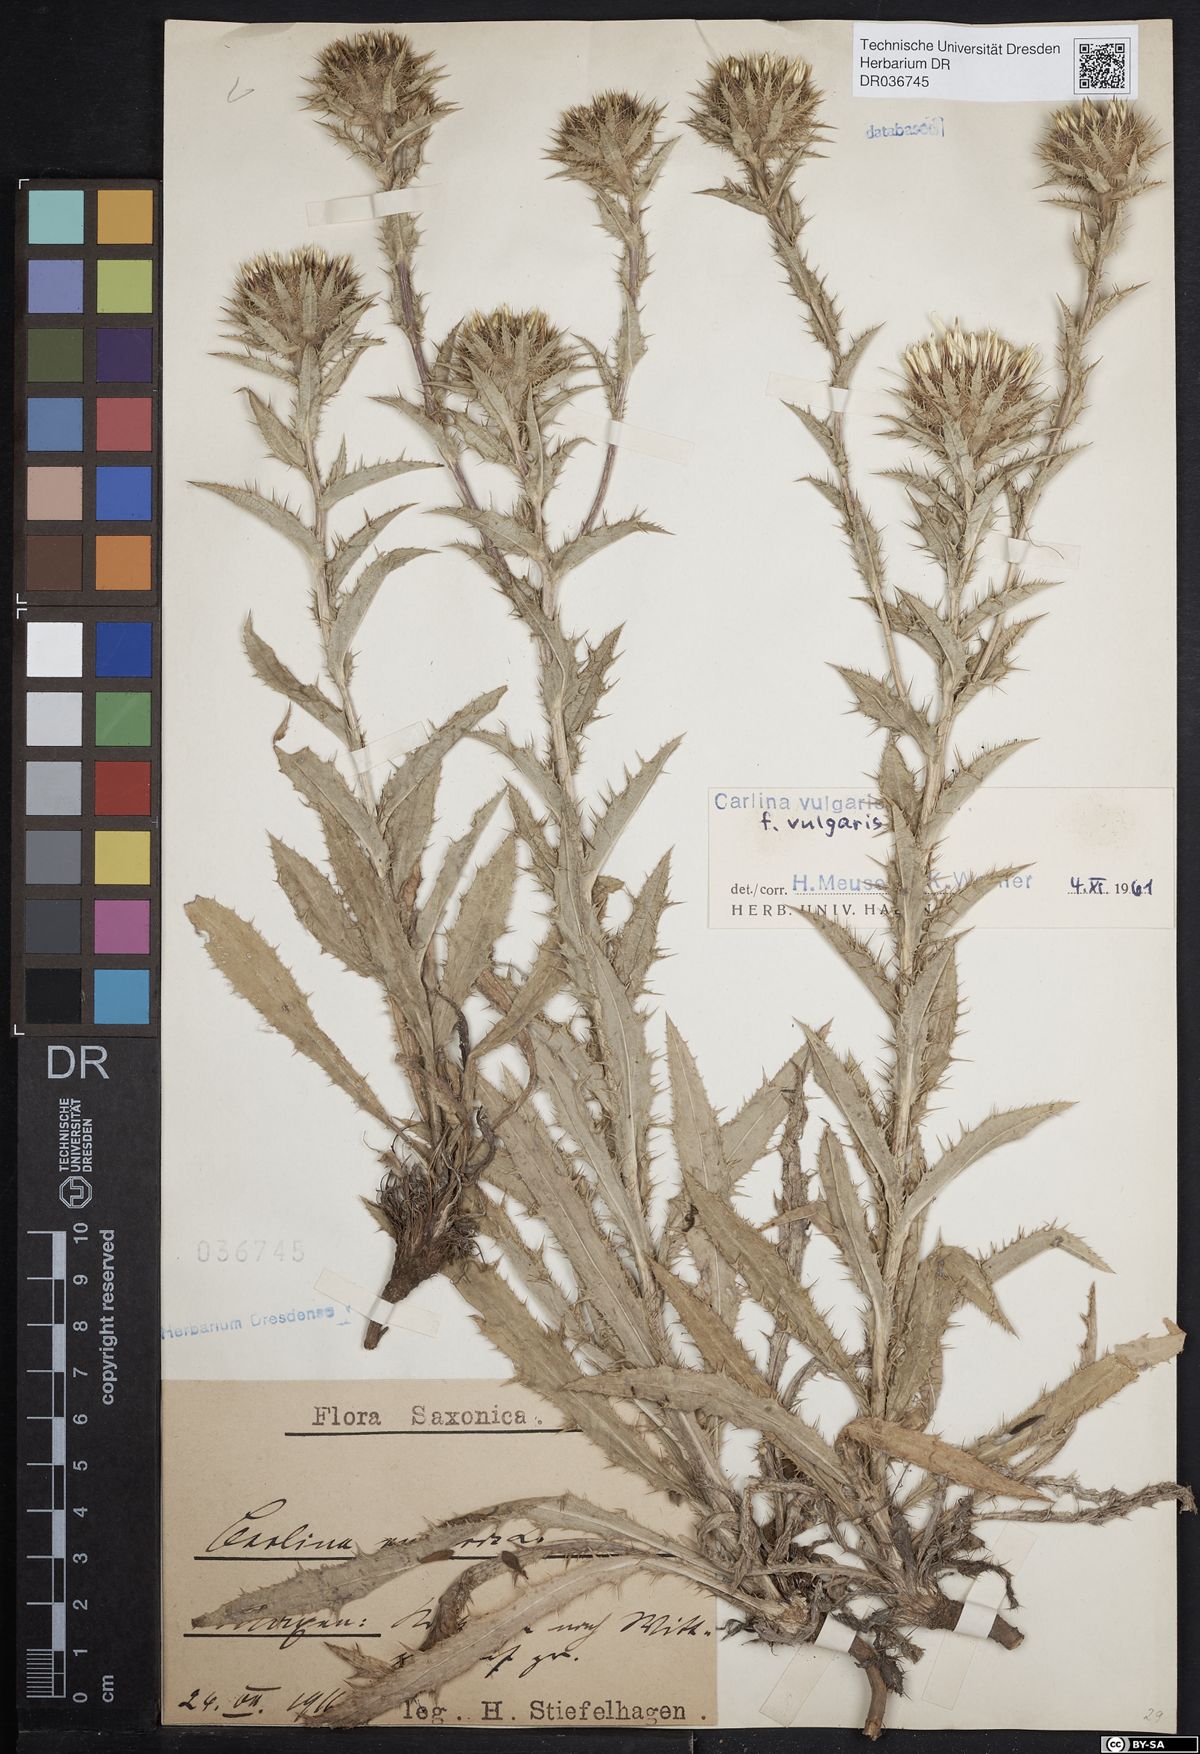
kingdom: Plantae
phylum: Tracheophyta
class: Magnoliopsida
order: Asterales
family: Asteraceae
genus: Carlina
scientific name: Carlina vulgaris
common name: Carline thistle
